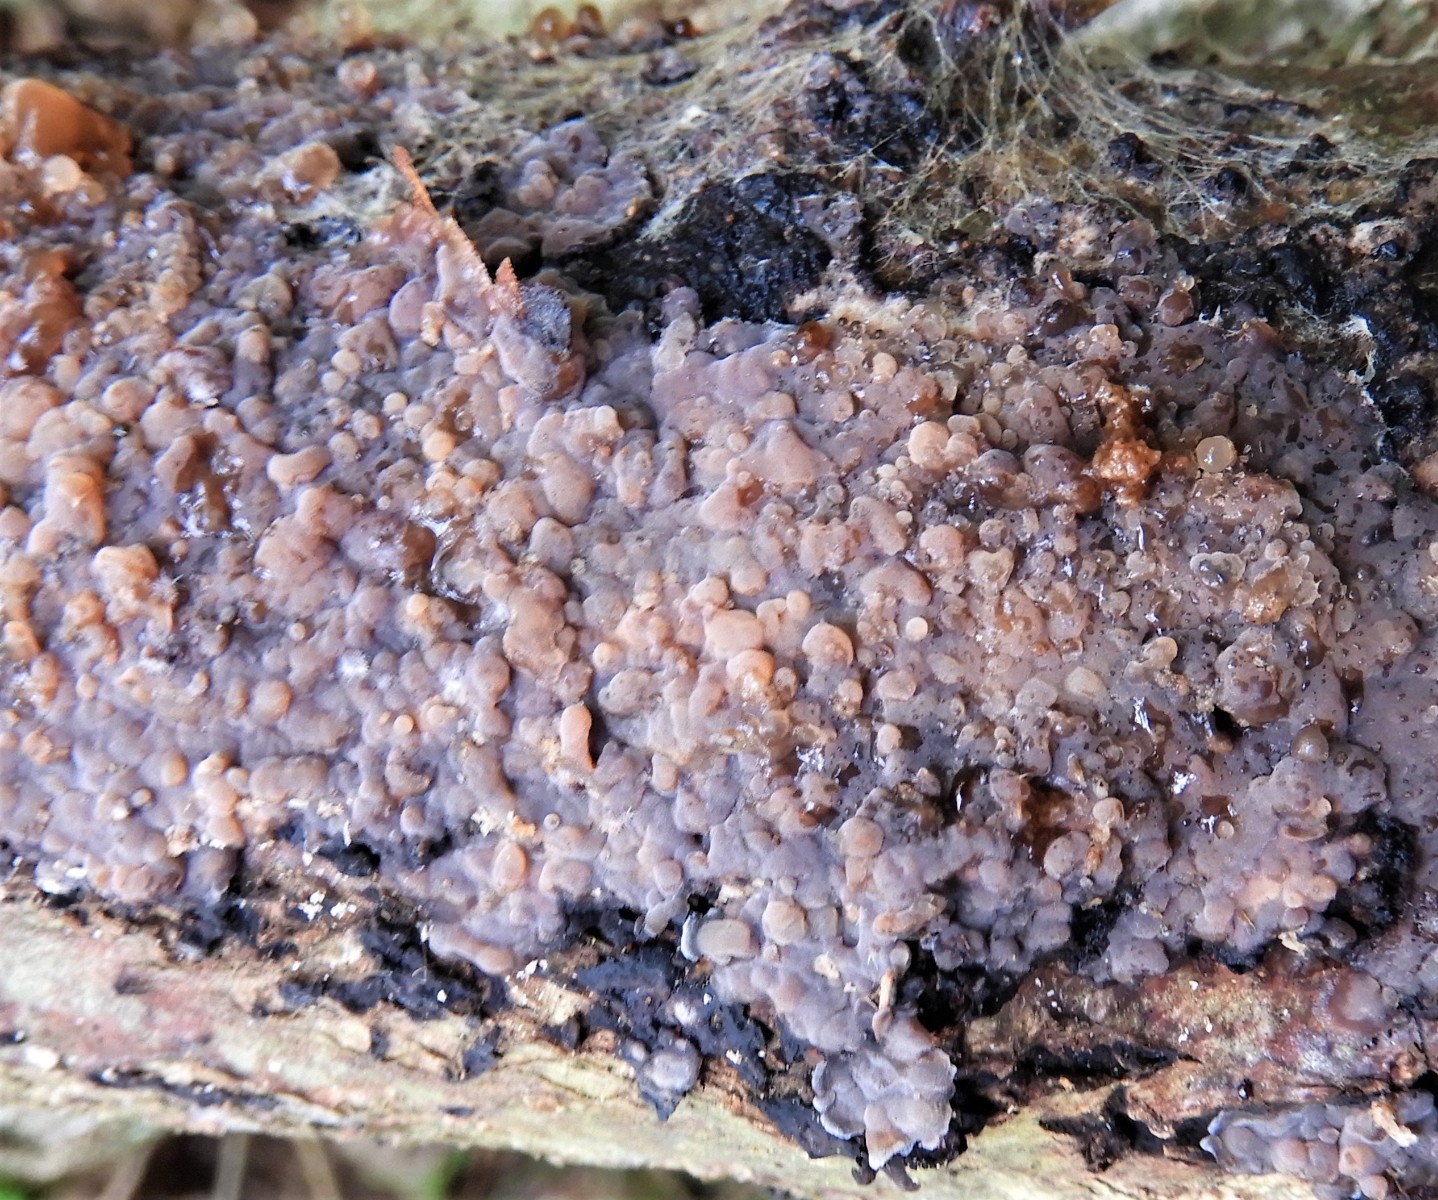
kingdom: Fungi
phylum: Basidiomycota
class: Agaricomycetes
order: Russulales
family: Peniophoraceae
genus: Peniophora
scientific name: Peniophora quercina
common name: ege-voksskind
